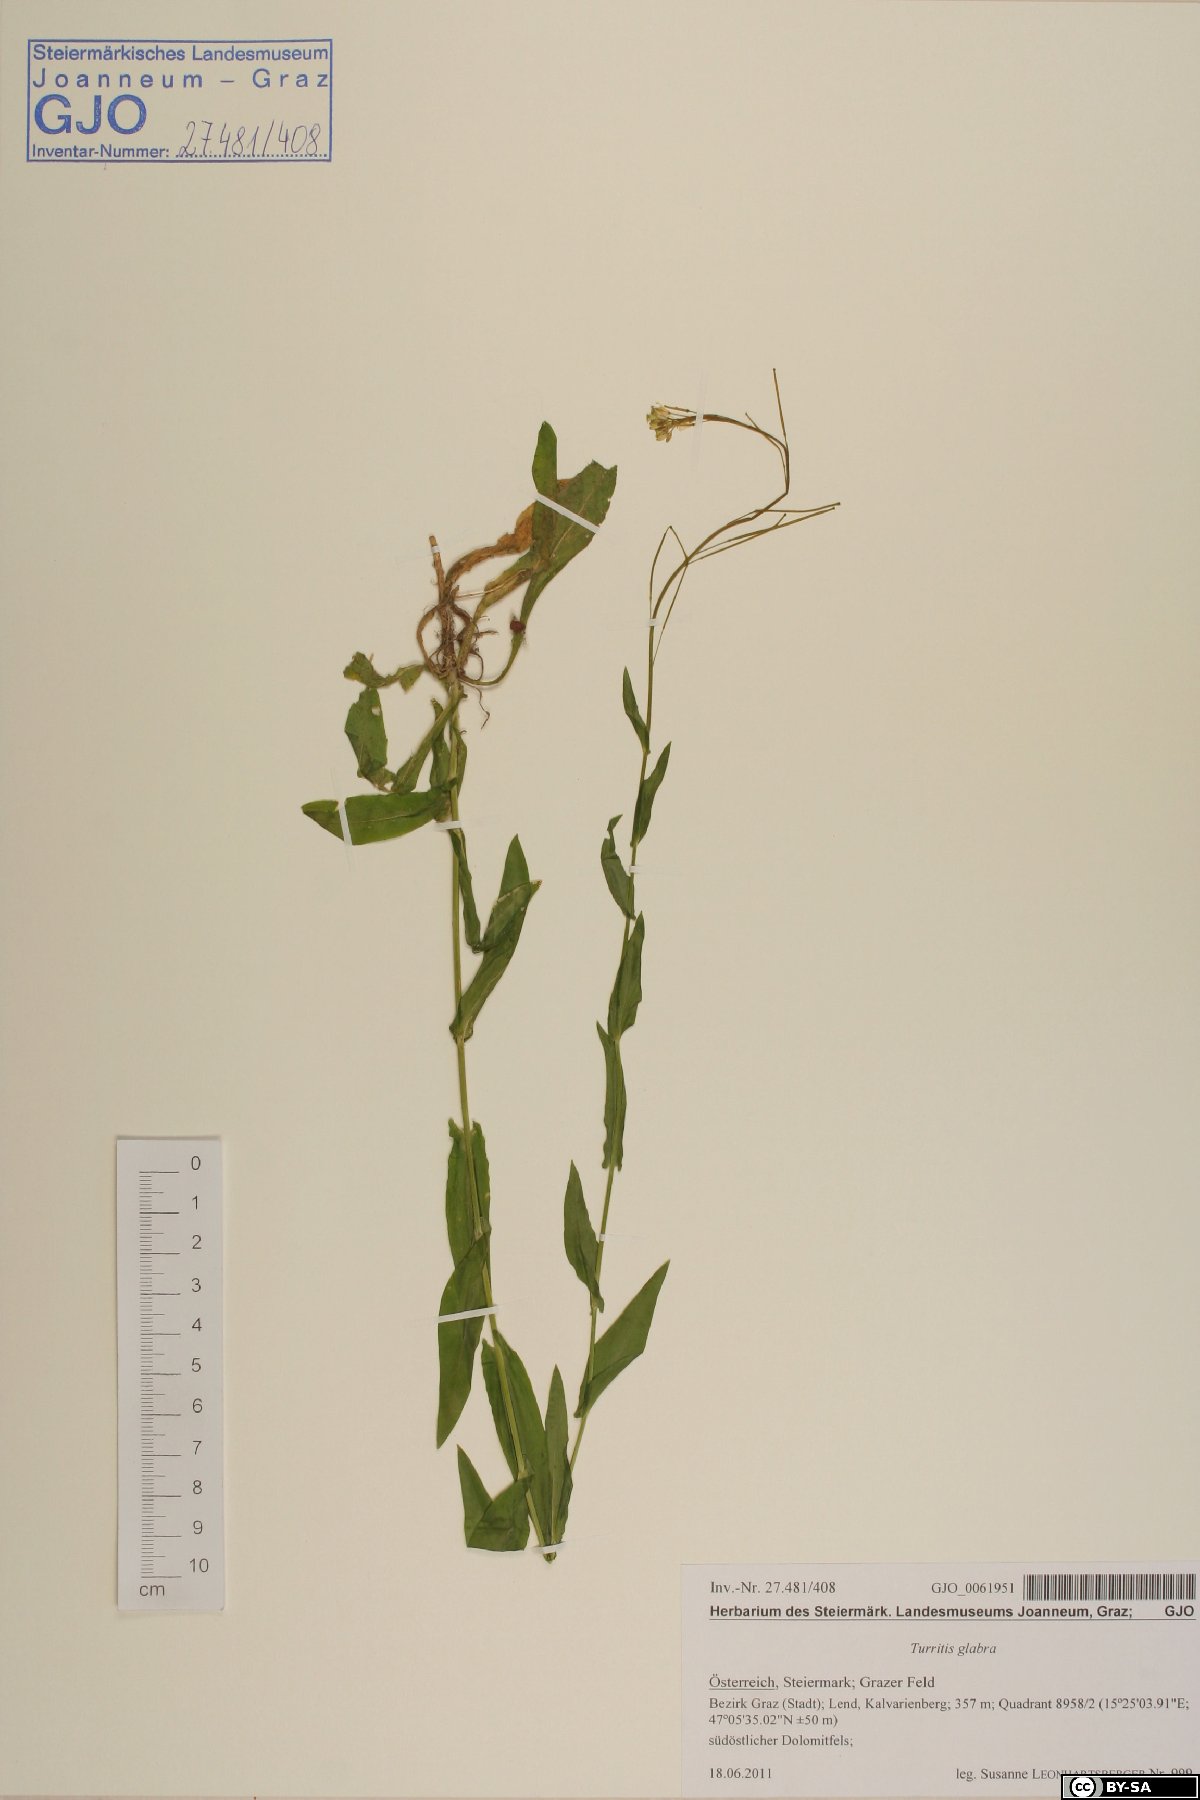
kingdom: Plantae
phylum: Tracheophyta
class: Magnoliopsida
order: Brassicales
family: Brassicaceae
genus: Turritis
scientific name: Turritis glabra
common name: Tower rockcress
